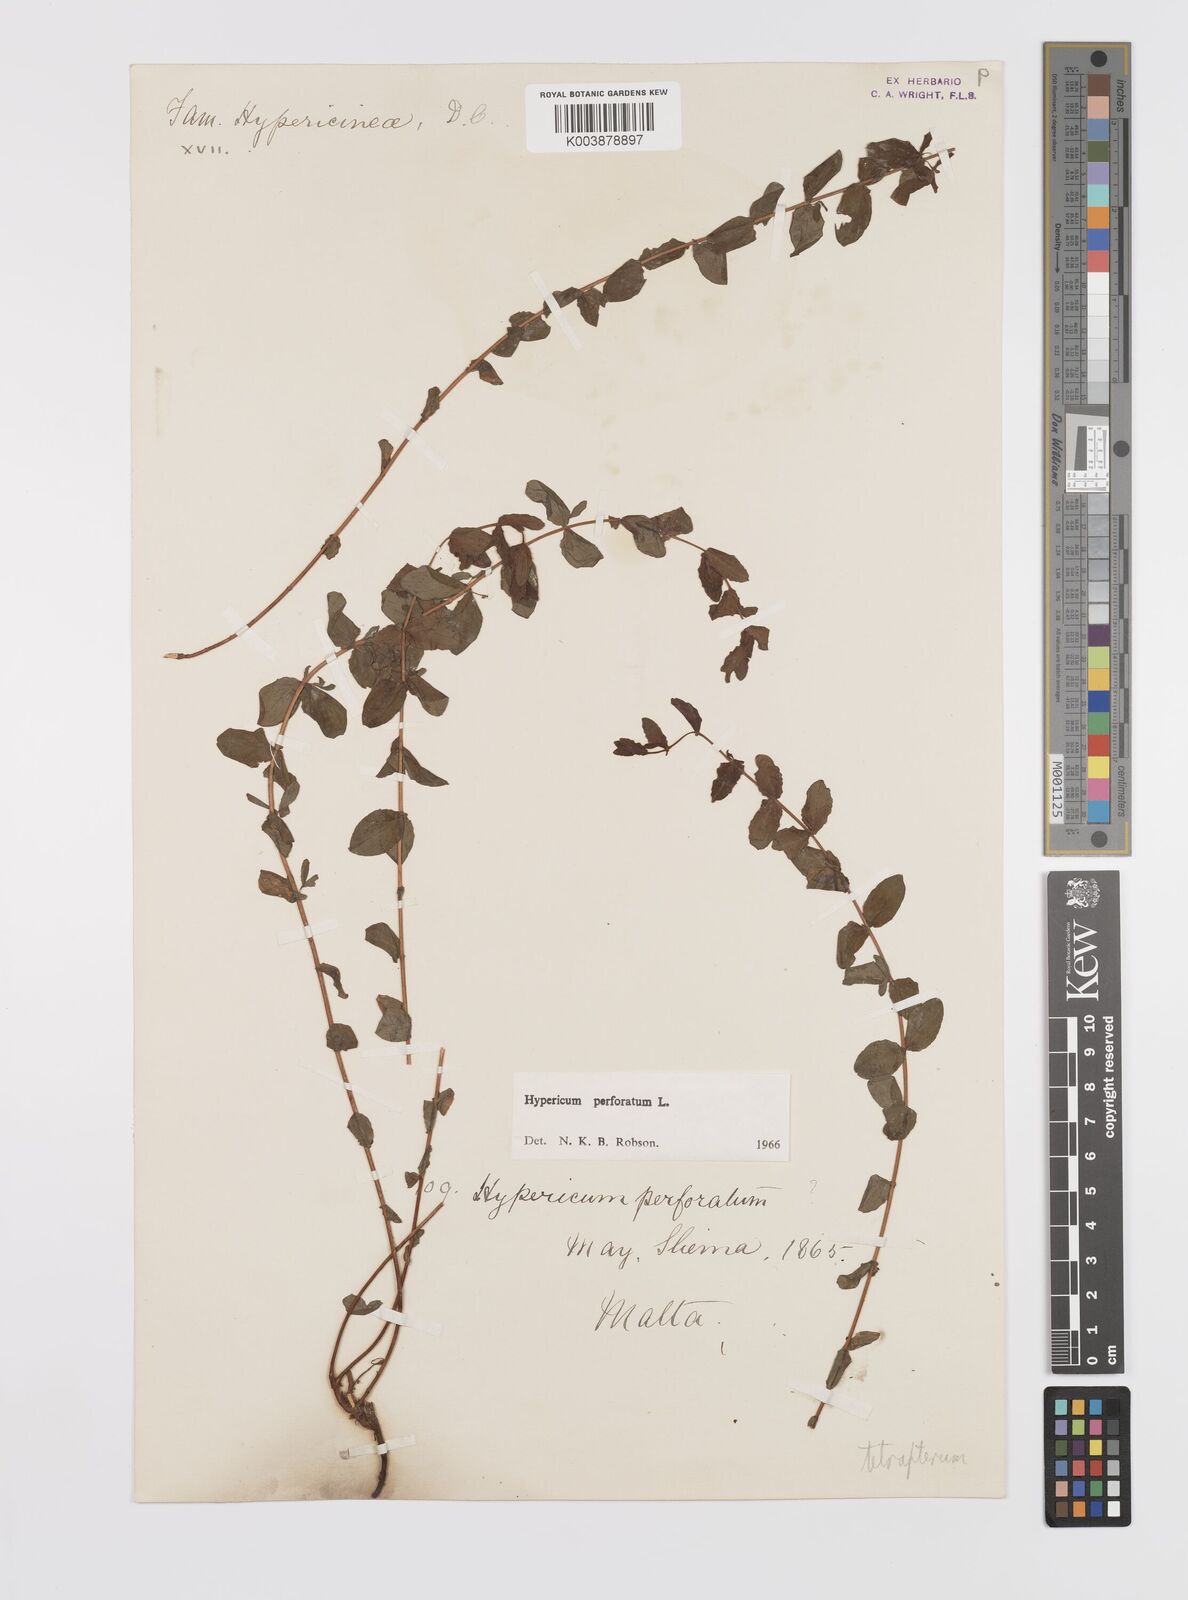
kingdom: Plantae
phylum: Tracheophyta
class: Magnoliopsida
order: Malpighiales
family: Hypericaceae
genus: Hypericum
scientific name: Hypericum tetrapterum
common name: Square-stalked st. john's-wort
